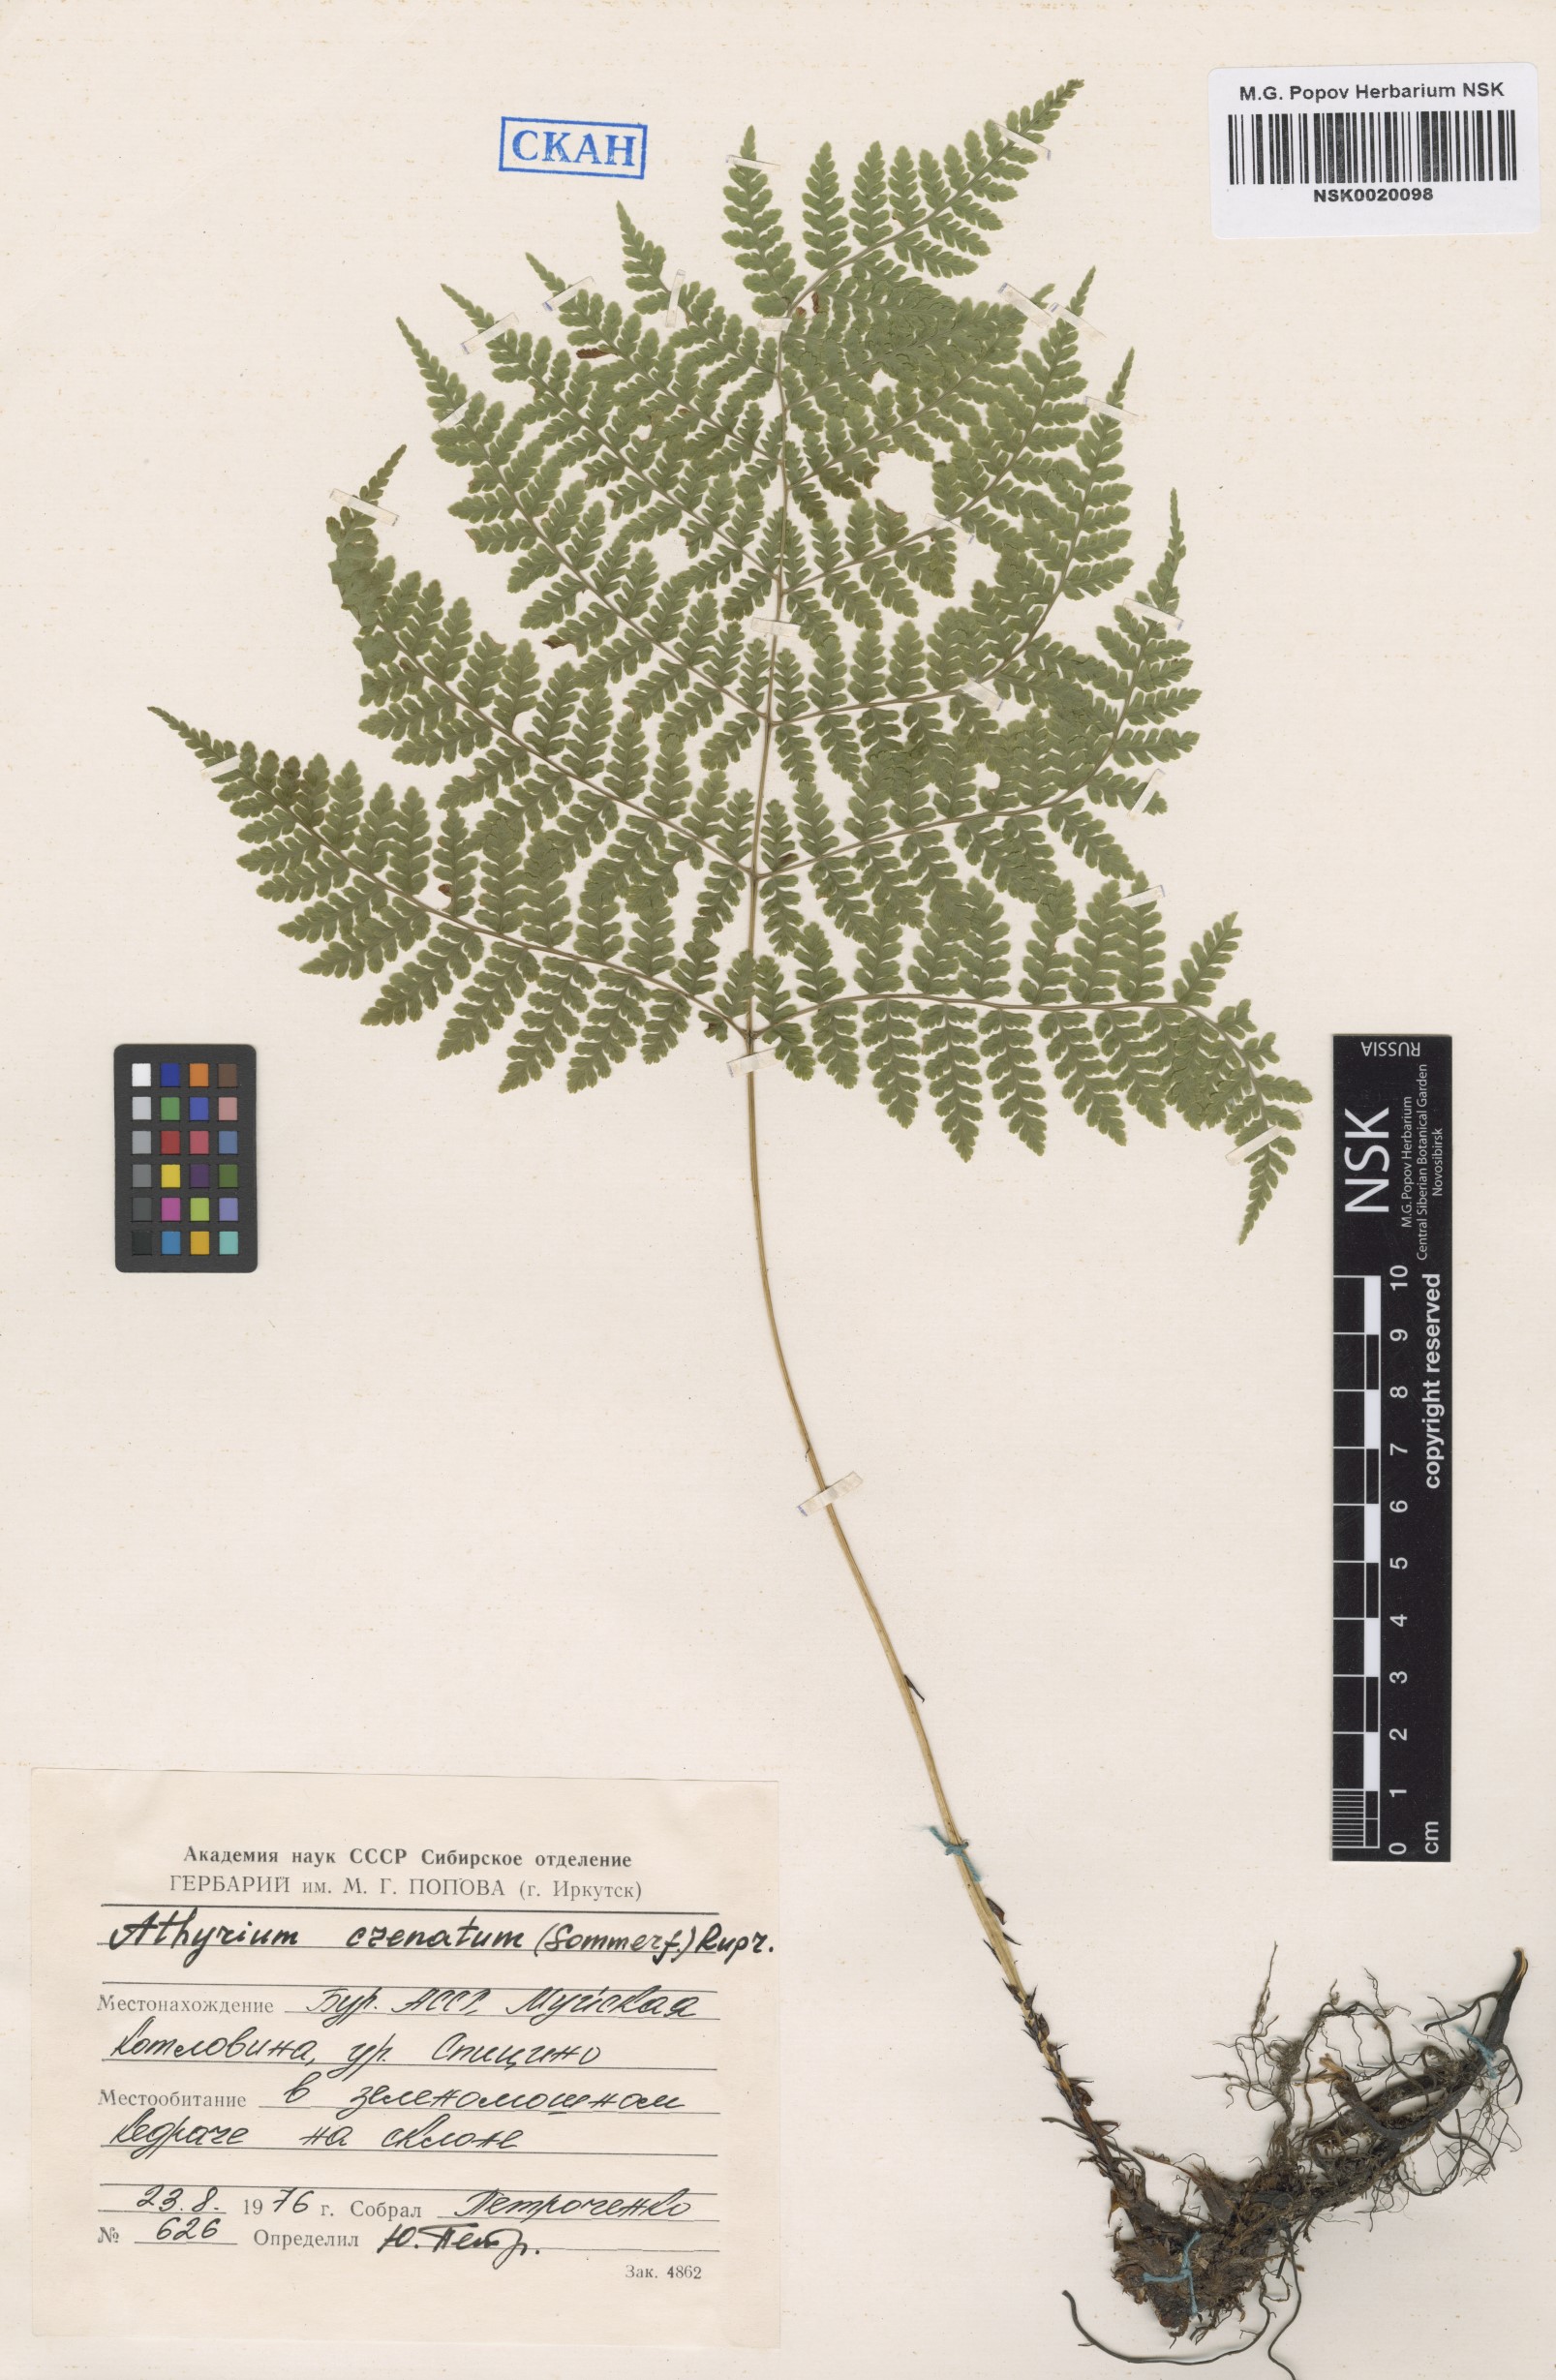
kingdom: Plantae
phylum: Tracheophyta
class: Polypodiopsida
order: Polypodiales
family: Athyriaceae
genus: Diplazium
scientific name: Diplazium sibiricum
